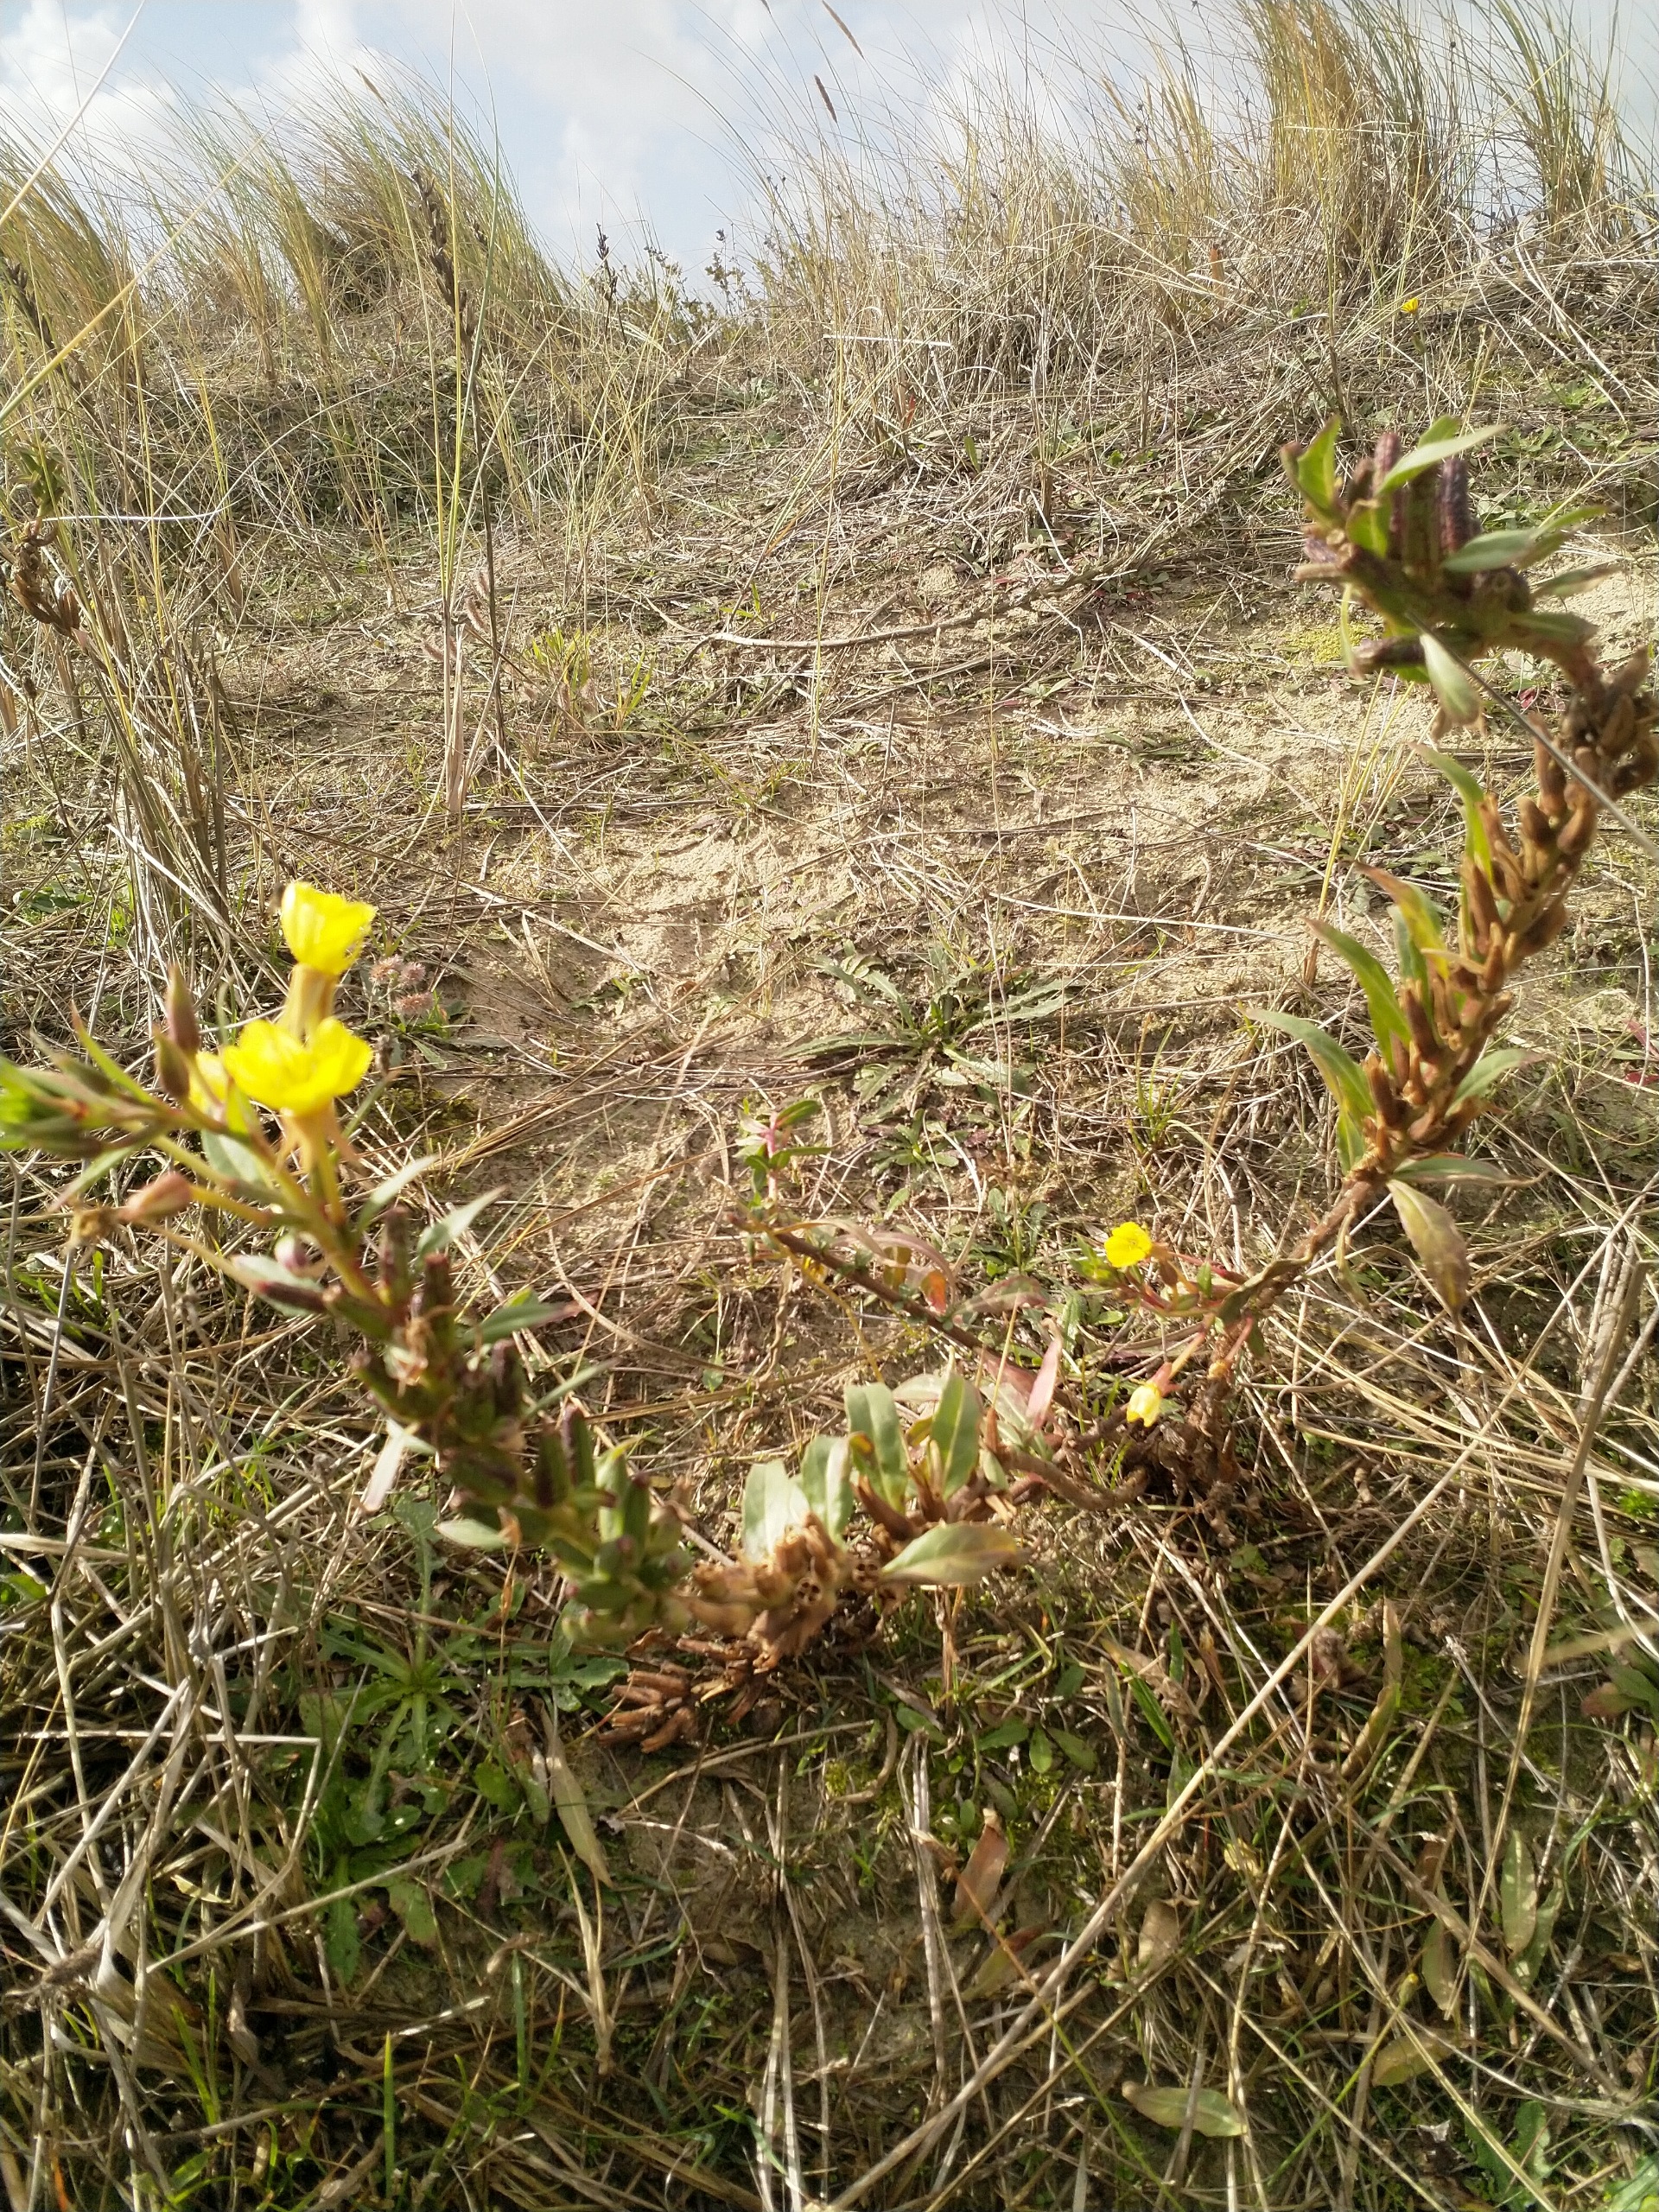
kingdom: Plantae
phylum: Tracheophyta
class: Magnoliopsida
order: Myrtales
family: Onagraceae
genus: Oenothera
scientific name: Oenothera ammophila
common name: Klit-natlys
